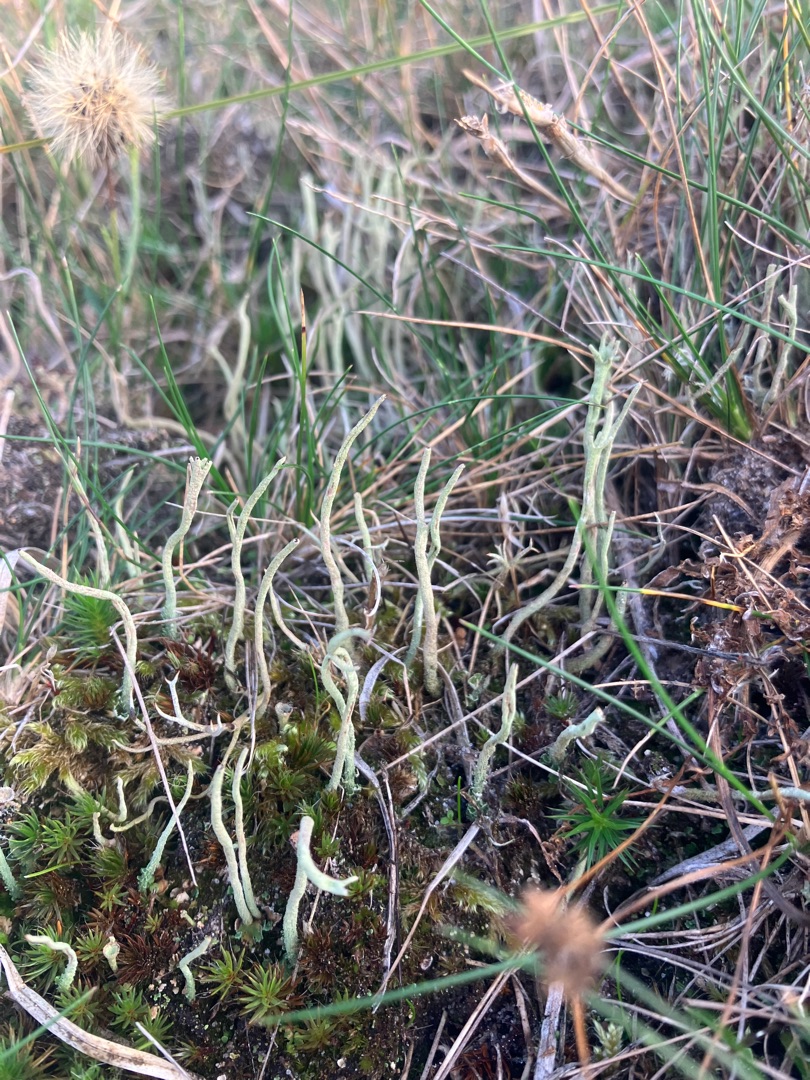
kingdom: Fungi
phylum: Ascomycota
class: Lecanoromycetes
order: Lecanorales
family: Cladoniaceae
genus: Cladonia
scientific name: Cladonia subulata
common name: Spids bægerlav
